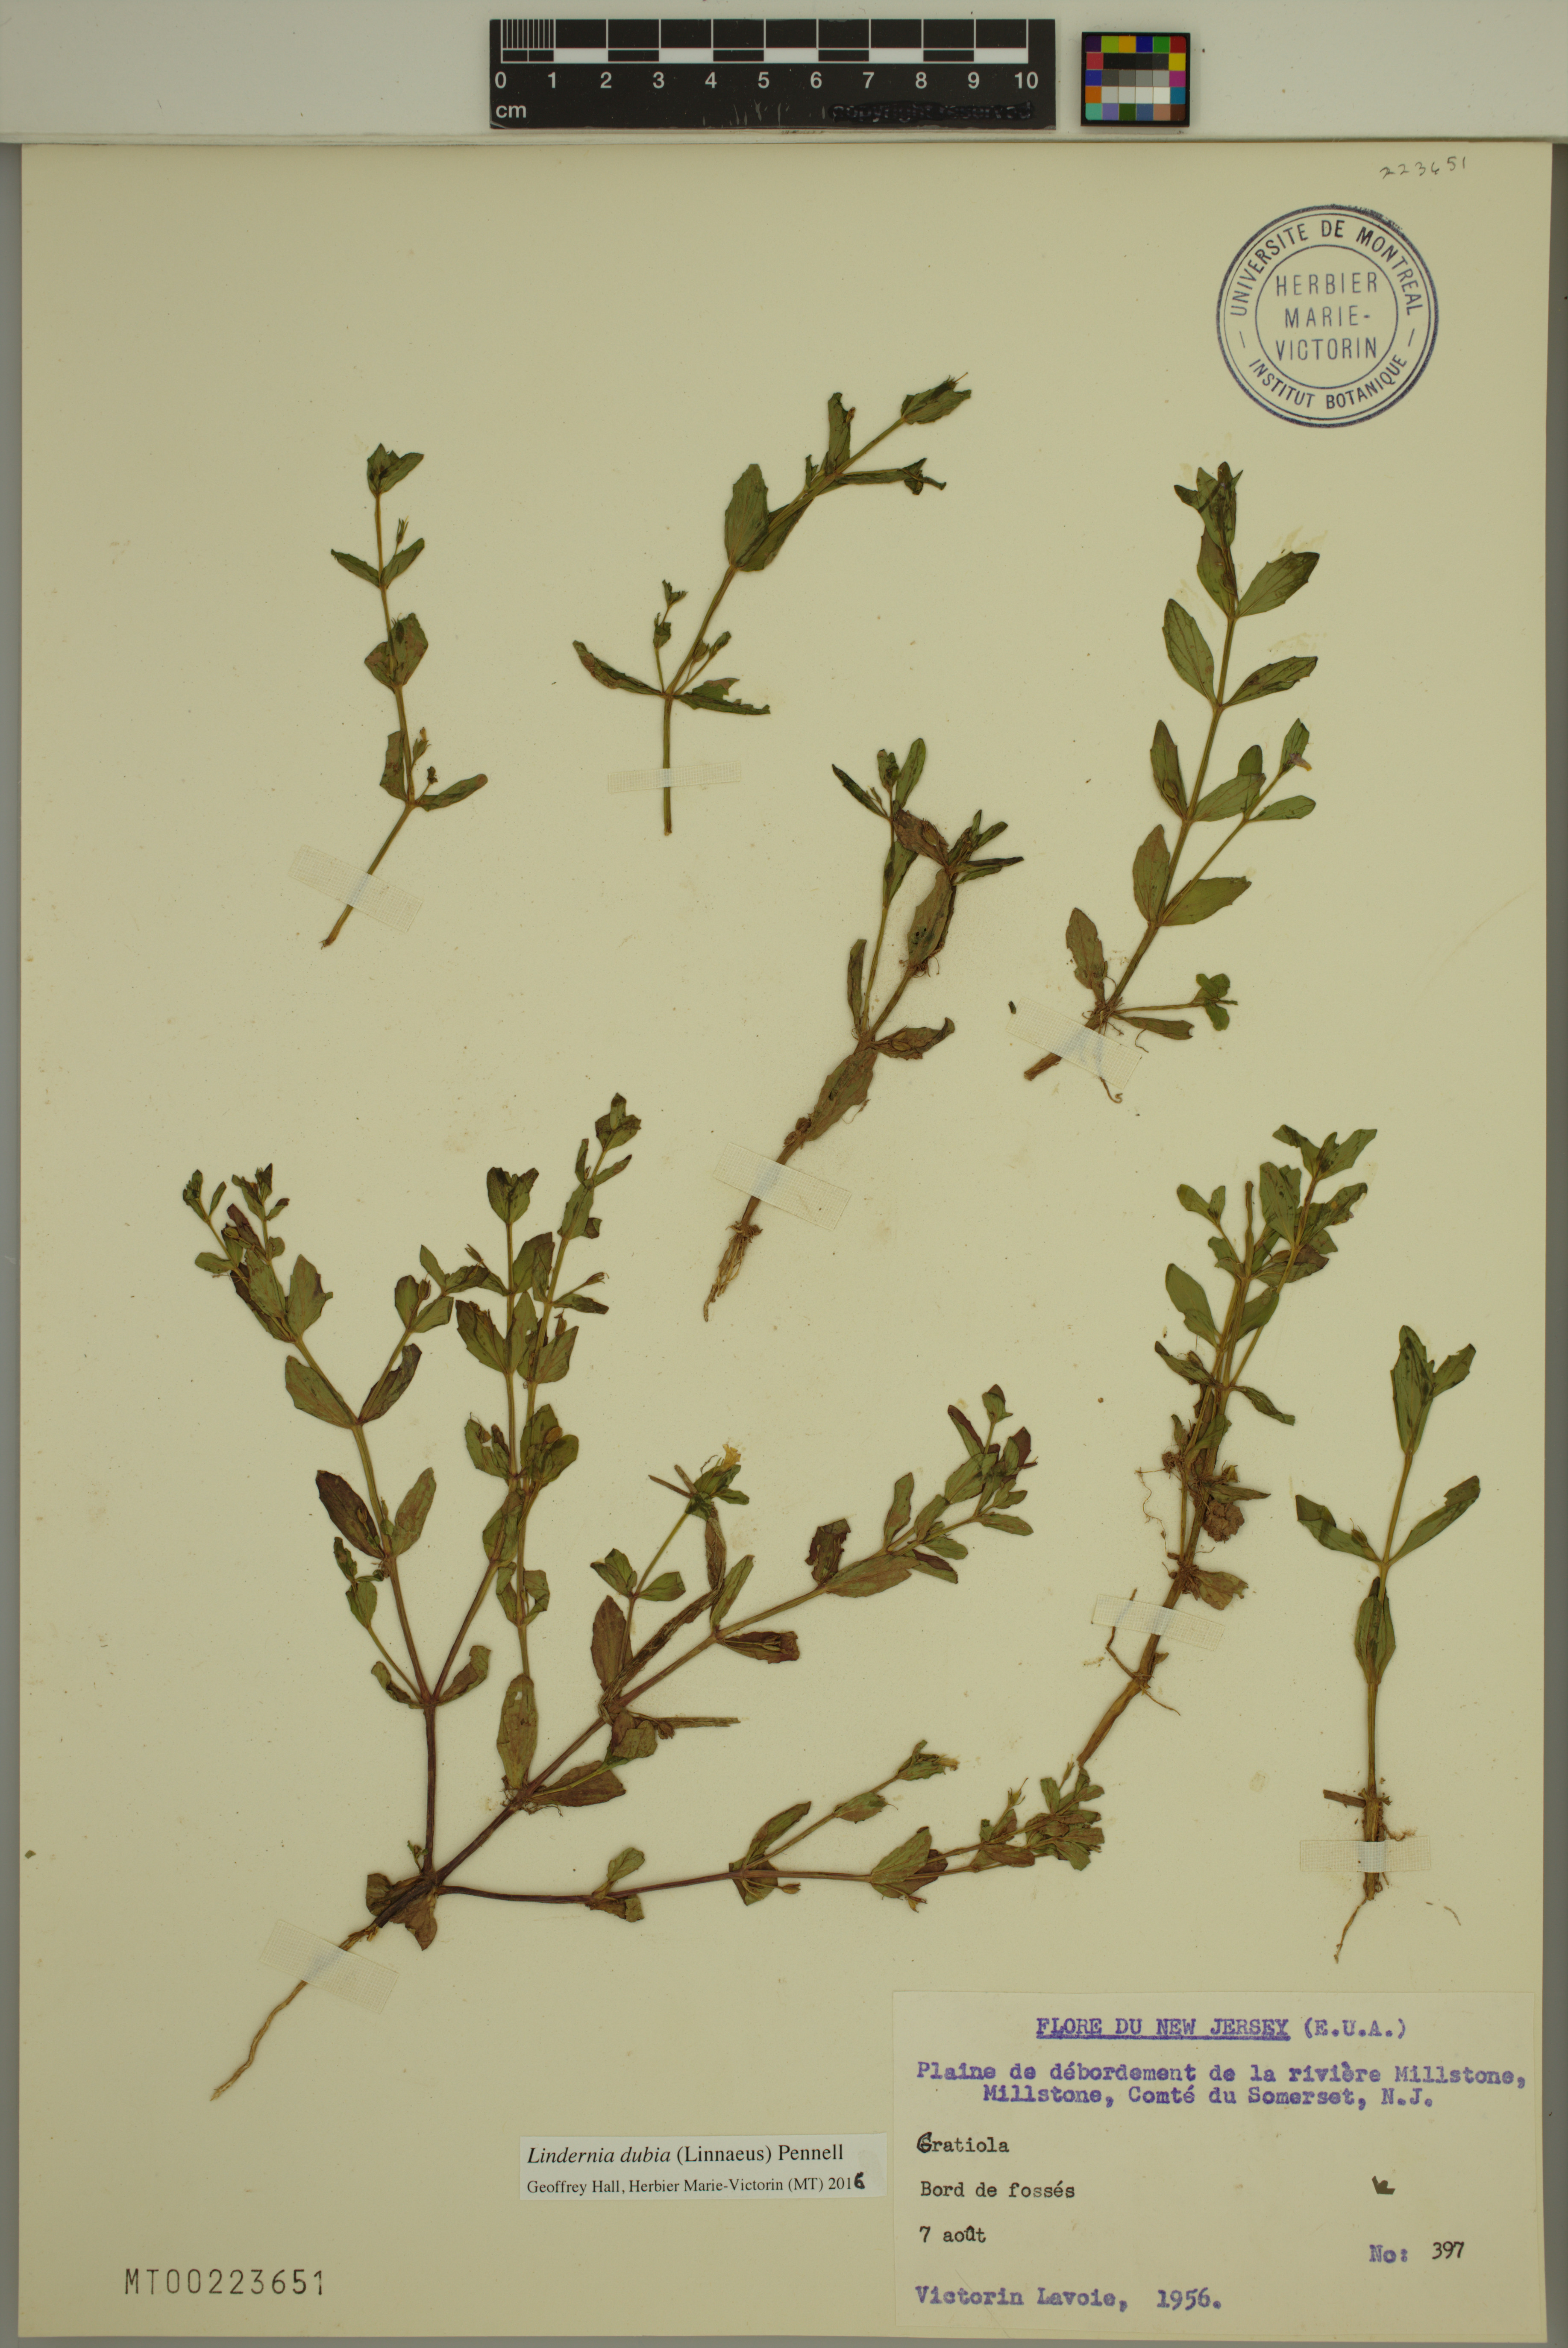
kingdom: Plantae
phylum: Tracheophyta
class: Magnoliopsida
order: Lamiales
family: Linderniaceae
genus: Lindernia
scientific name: Lindernia dubia
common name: Annual false pimpernel
